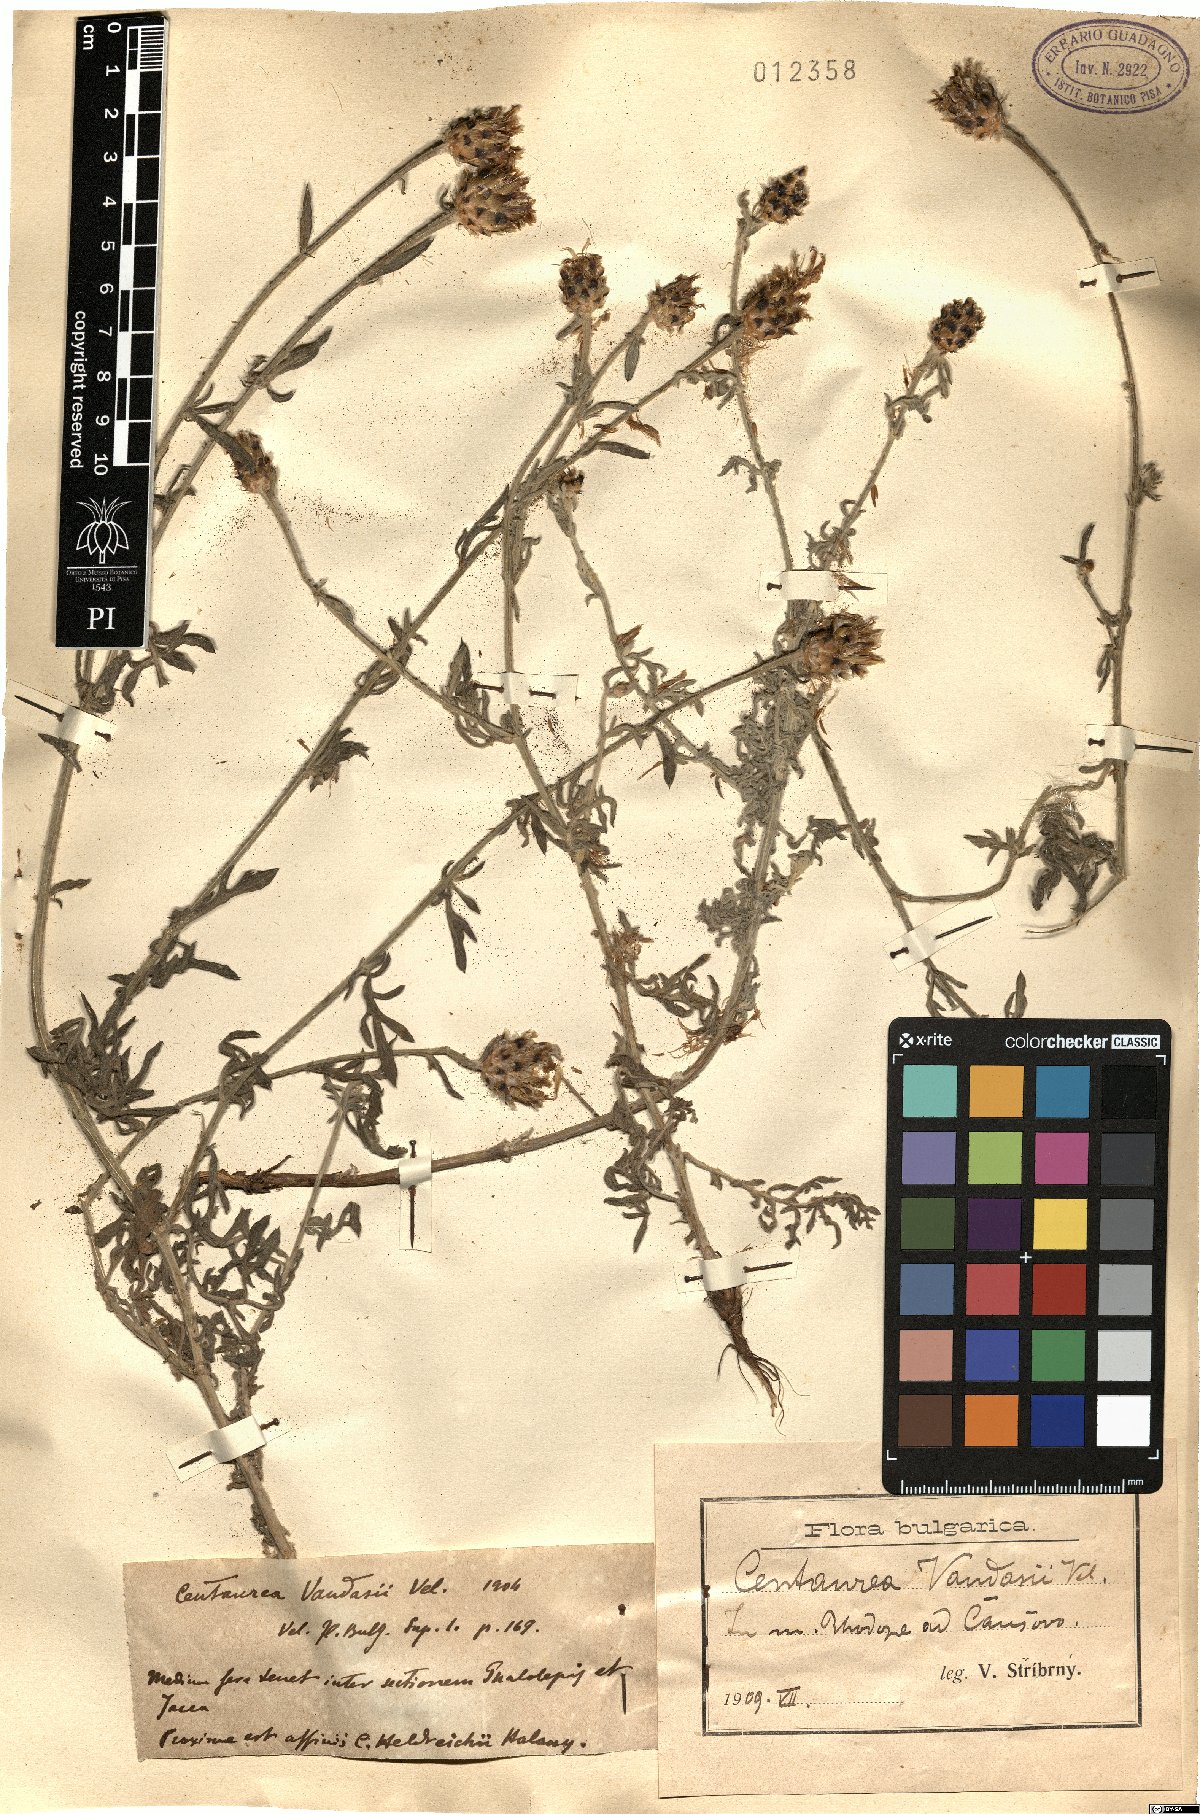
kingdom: Plantae
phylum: Tracheophyta
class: Magnoliopsida
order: Asterales
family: Asteraceae
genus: Centaurea
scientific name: Centaurea vandasii
